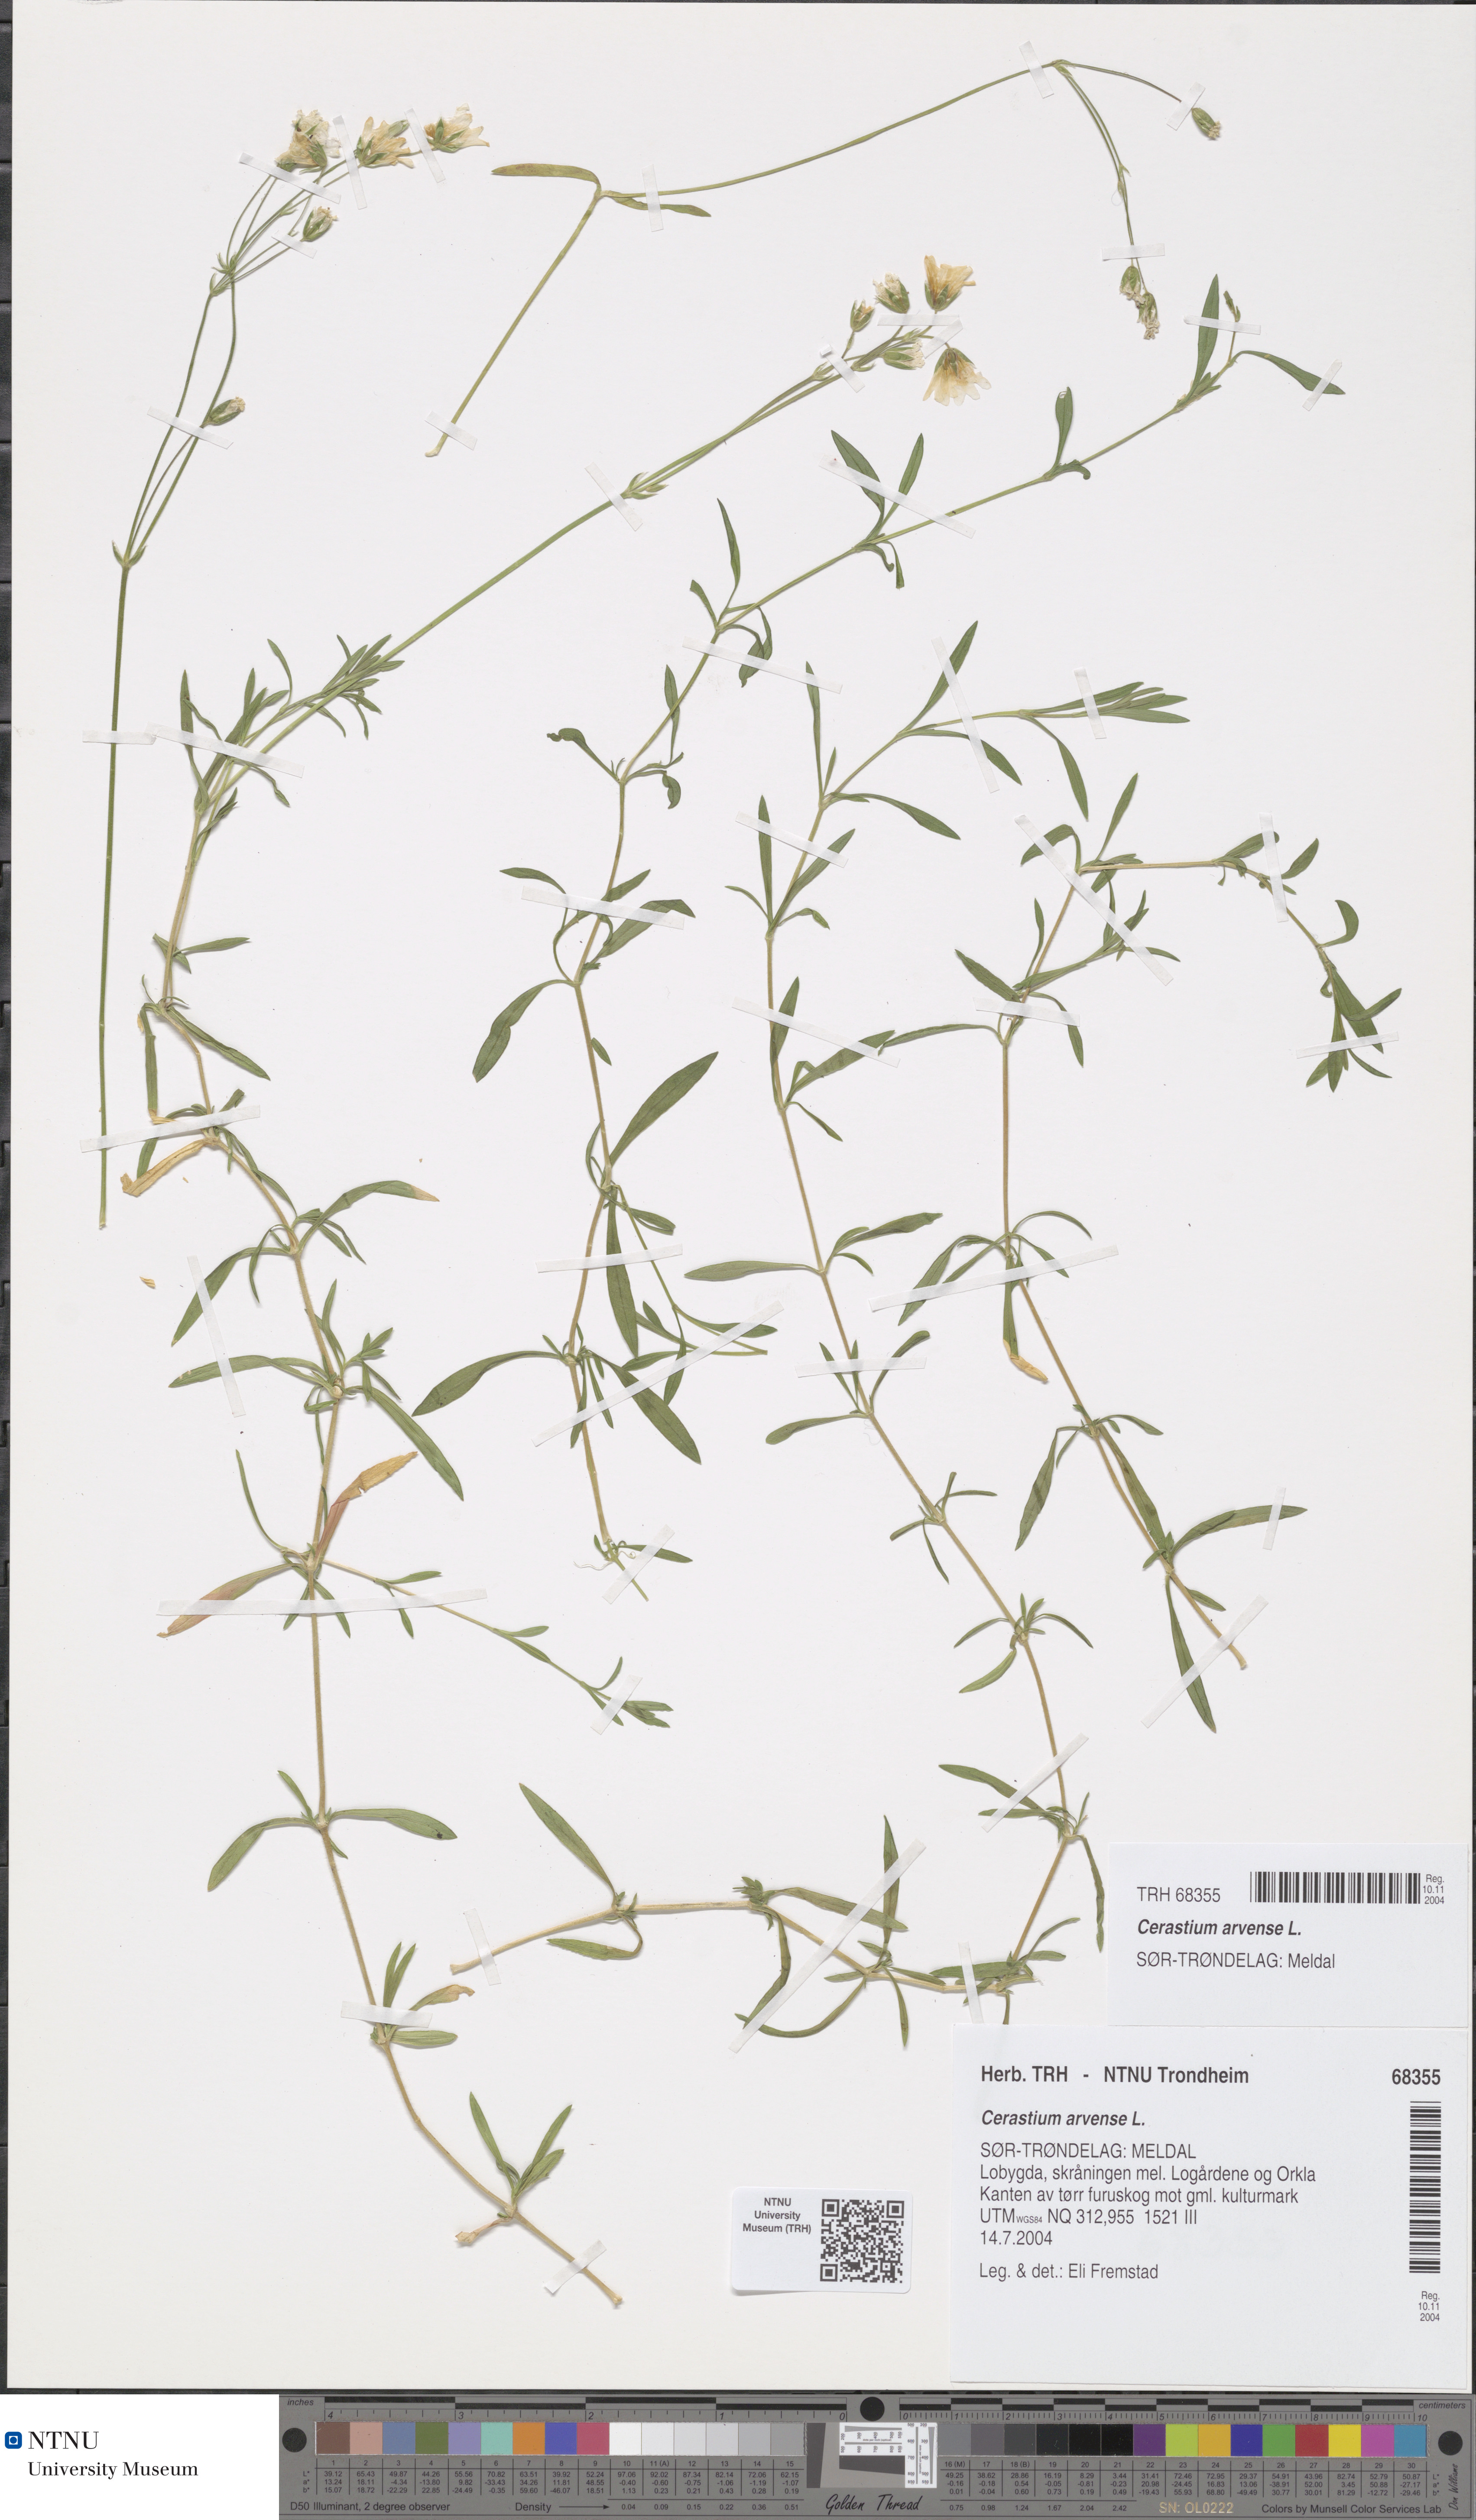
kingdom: Plantae
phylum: Tracheophyta
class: Magnoliopsida
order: Caryophyllales
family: Caryophyllaceae
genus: Cerastium
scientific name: Cerastium arvense
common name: Field mouse-ear
